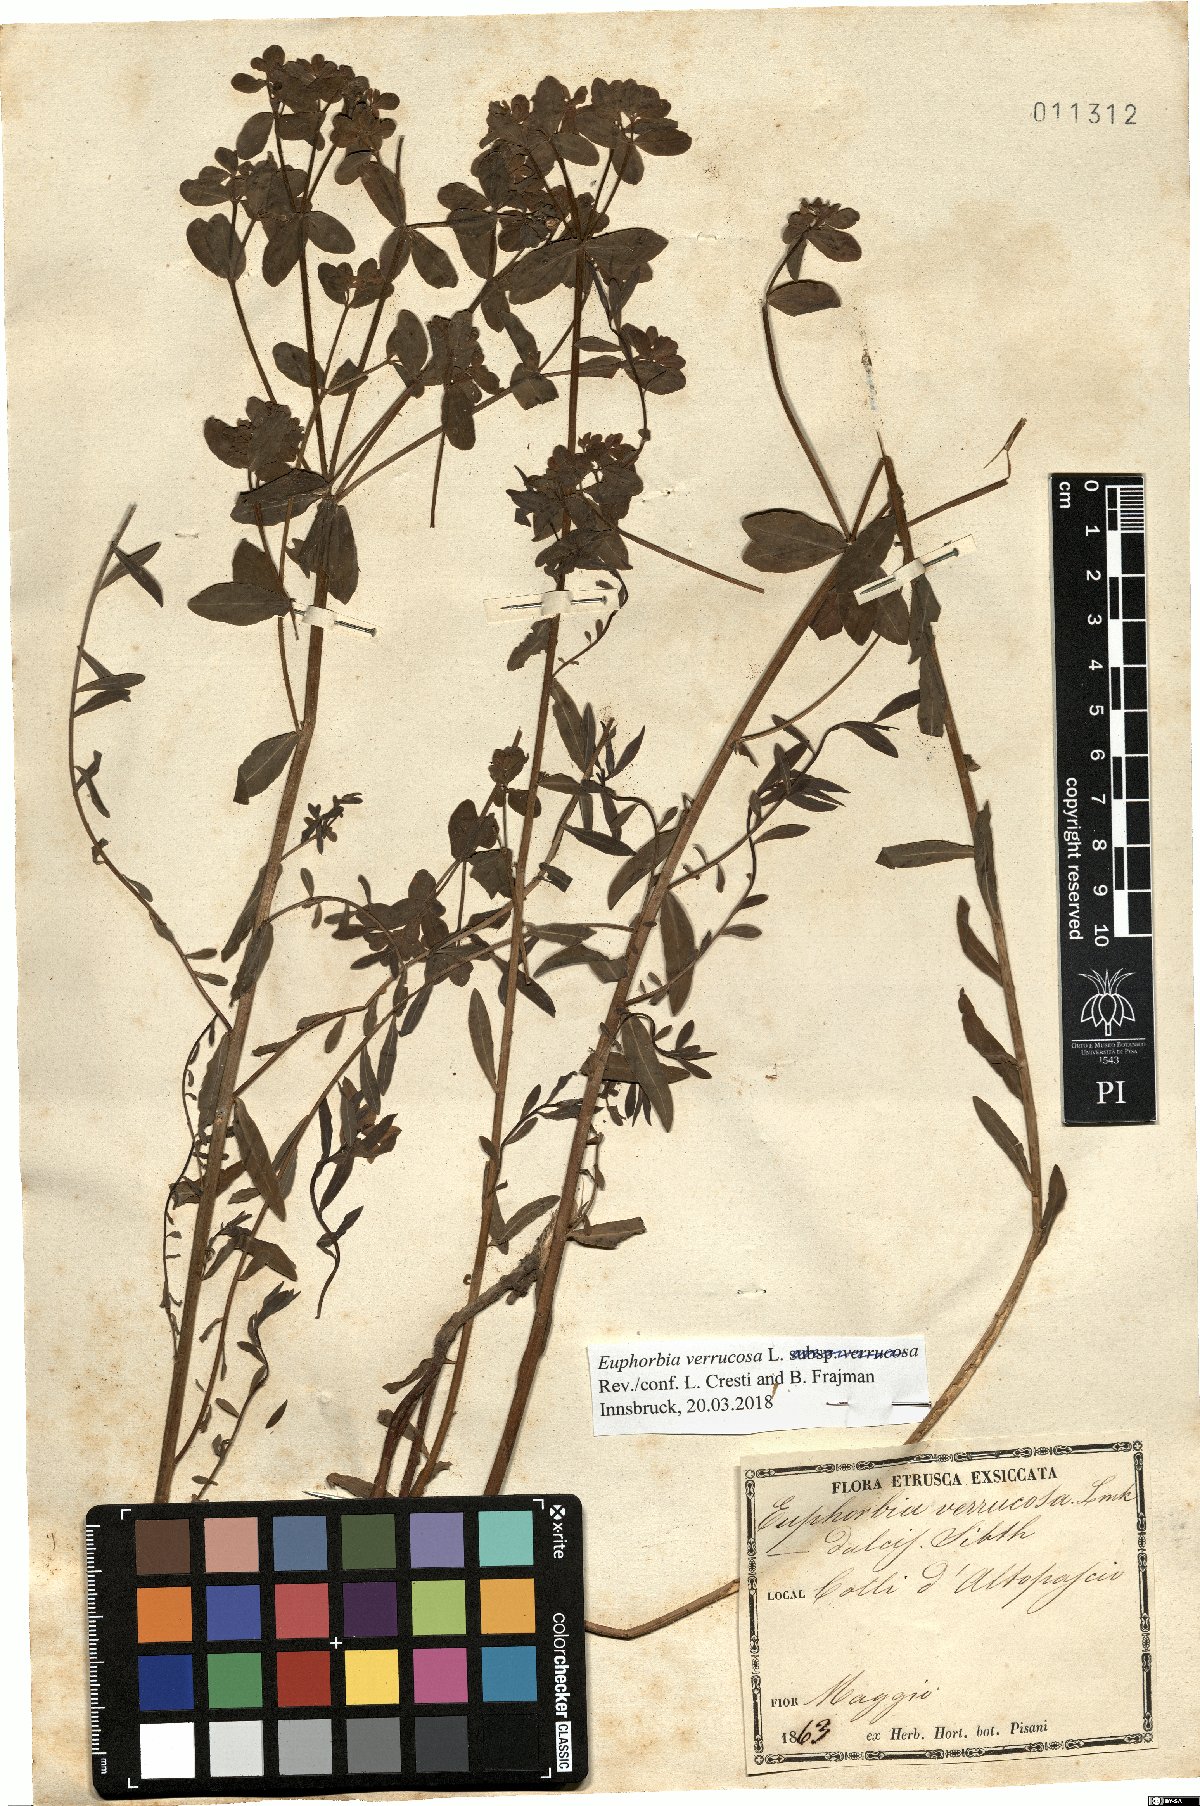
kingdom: Plantae
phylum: Tracheophyta
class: Magnoliopsida
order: Malpighiales
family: Euphorbiaceae
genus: Euphorbia
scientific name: Euphorbia verrucosa
